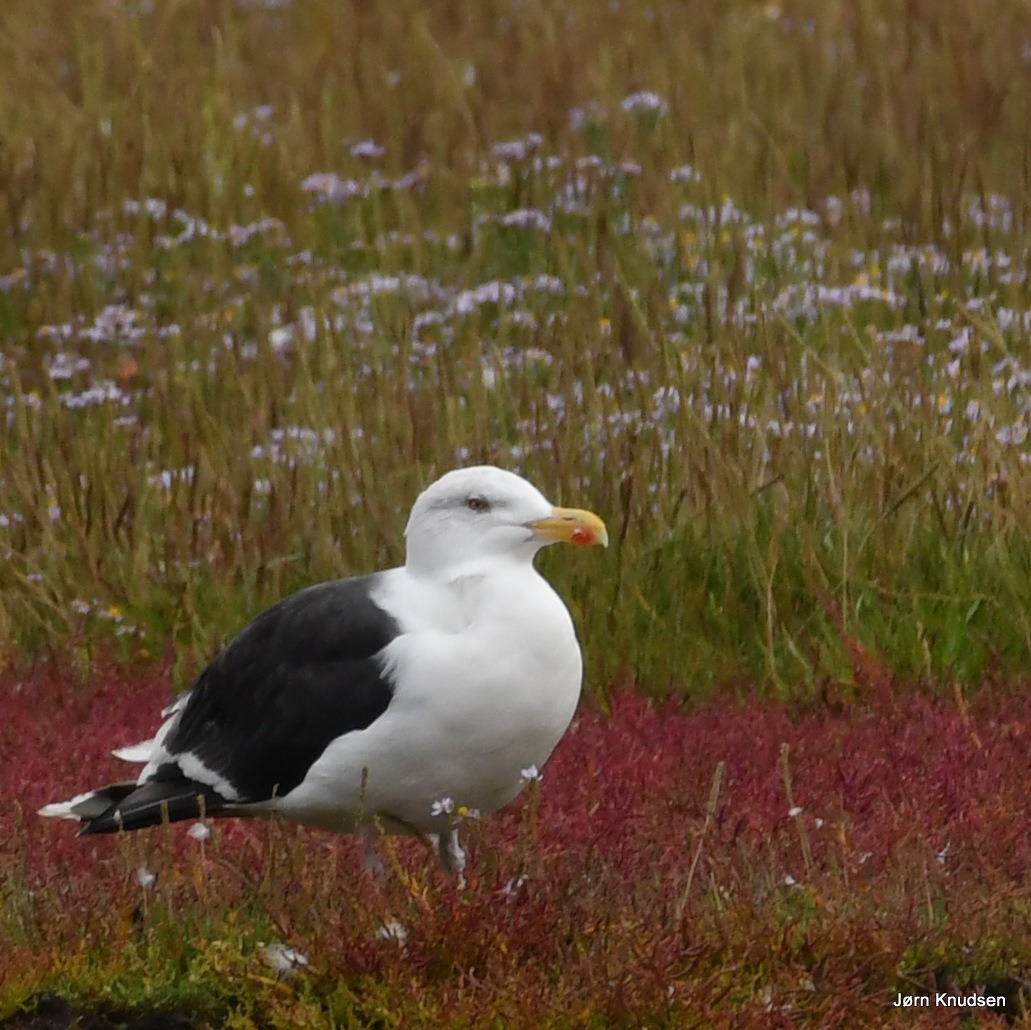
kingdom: Animalia
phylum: Chordata
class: Aves
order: Charadriiformes
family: Laridae
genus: Larus
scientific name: Larus marinus
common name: Svartbag
